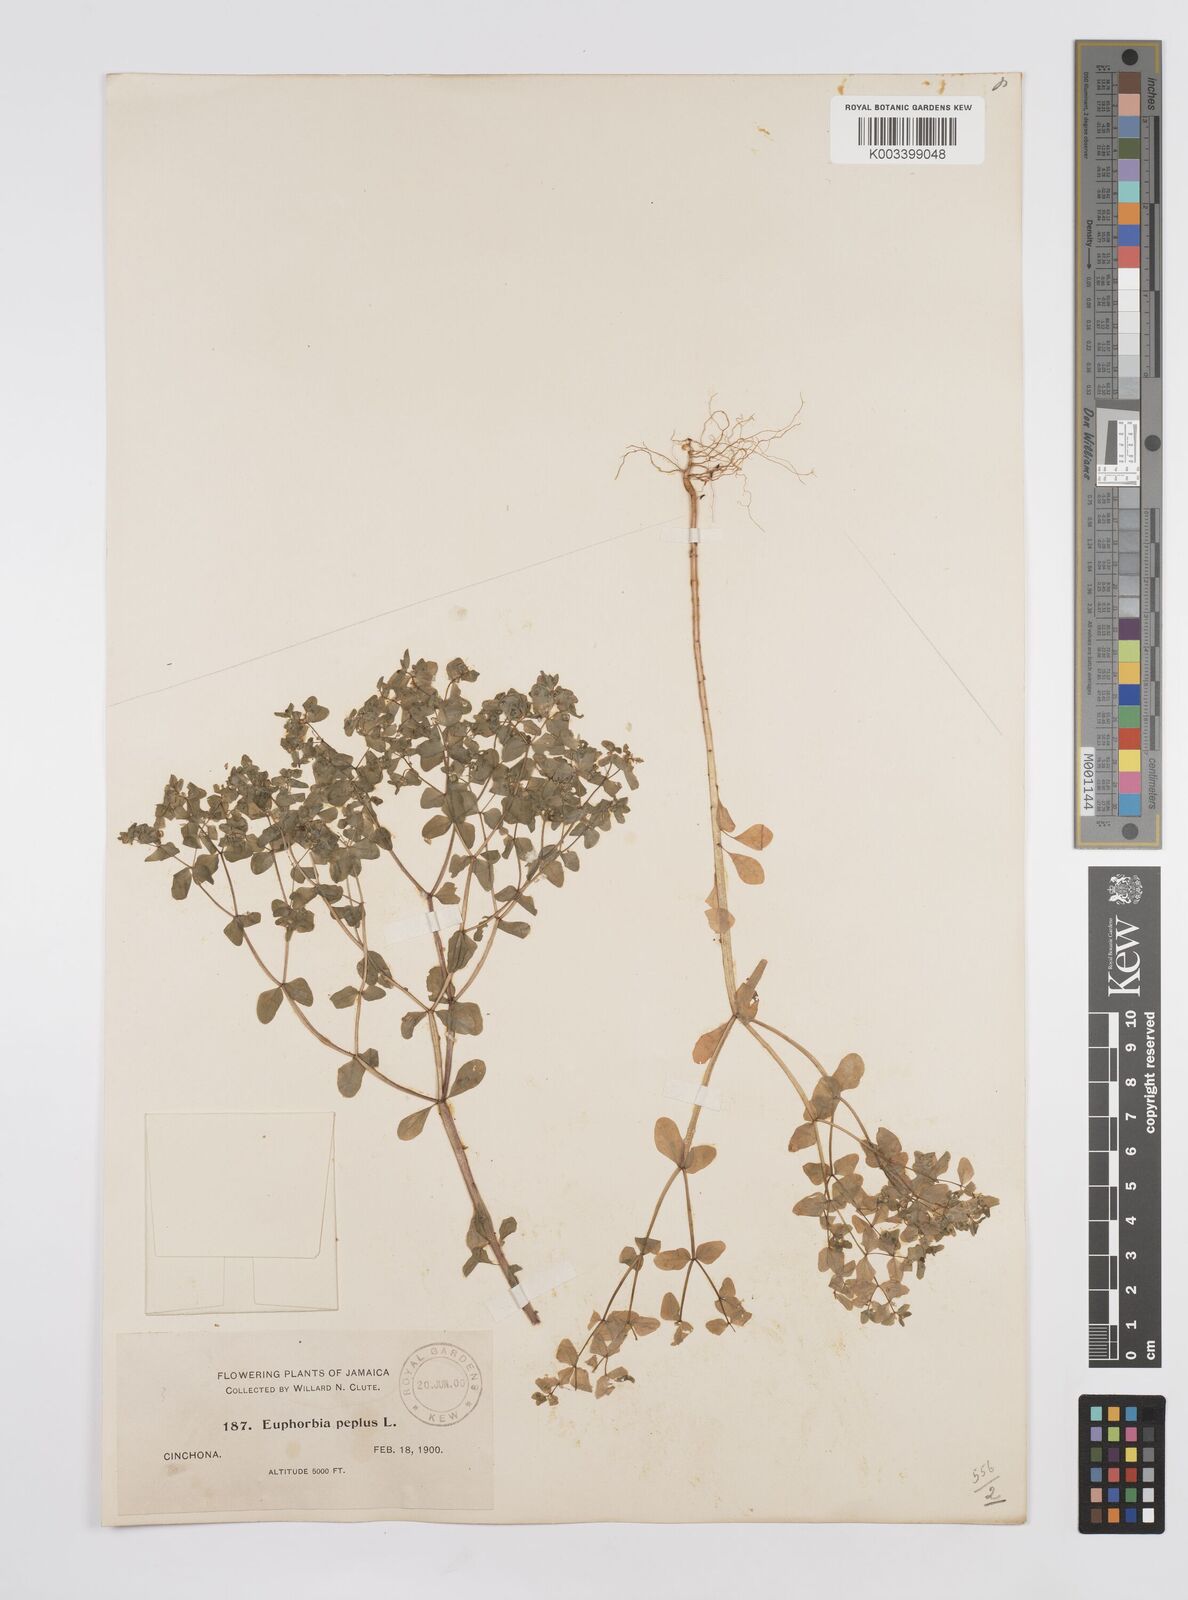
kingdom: Plantae
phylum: Tracheophyta
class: Magnoliopsida
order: Malpighiales
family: Euphorbiaceae
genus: Euphorbia
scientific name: Euphorbia peplus
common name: Petty spurge
